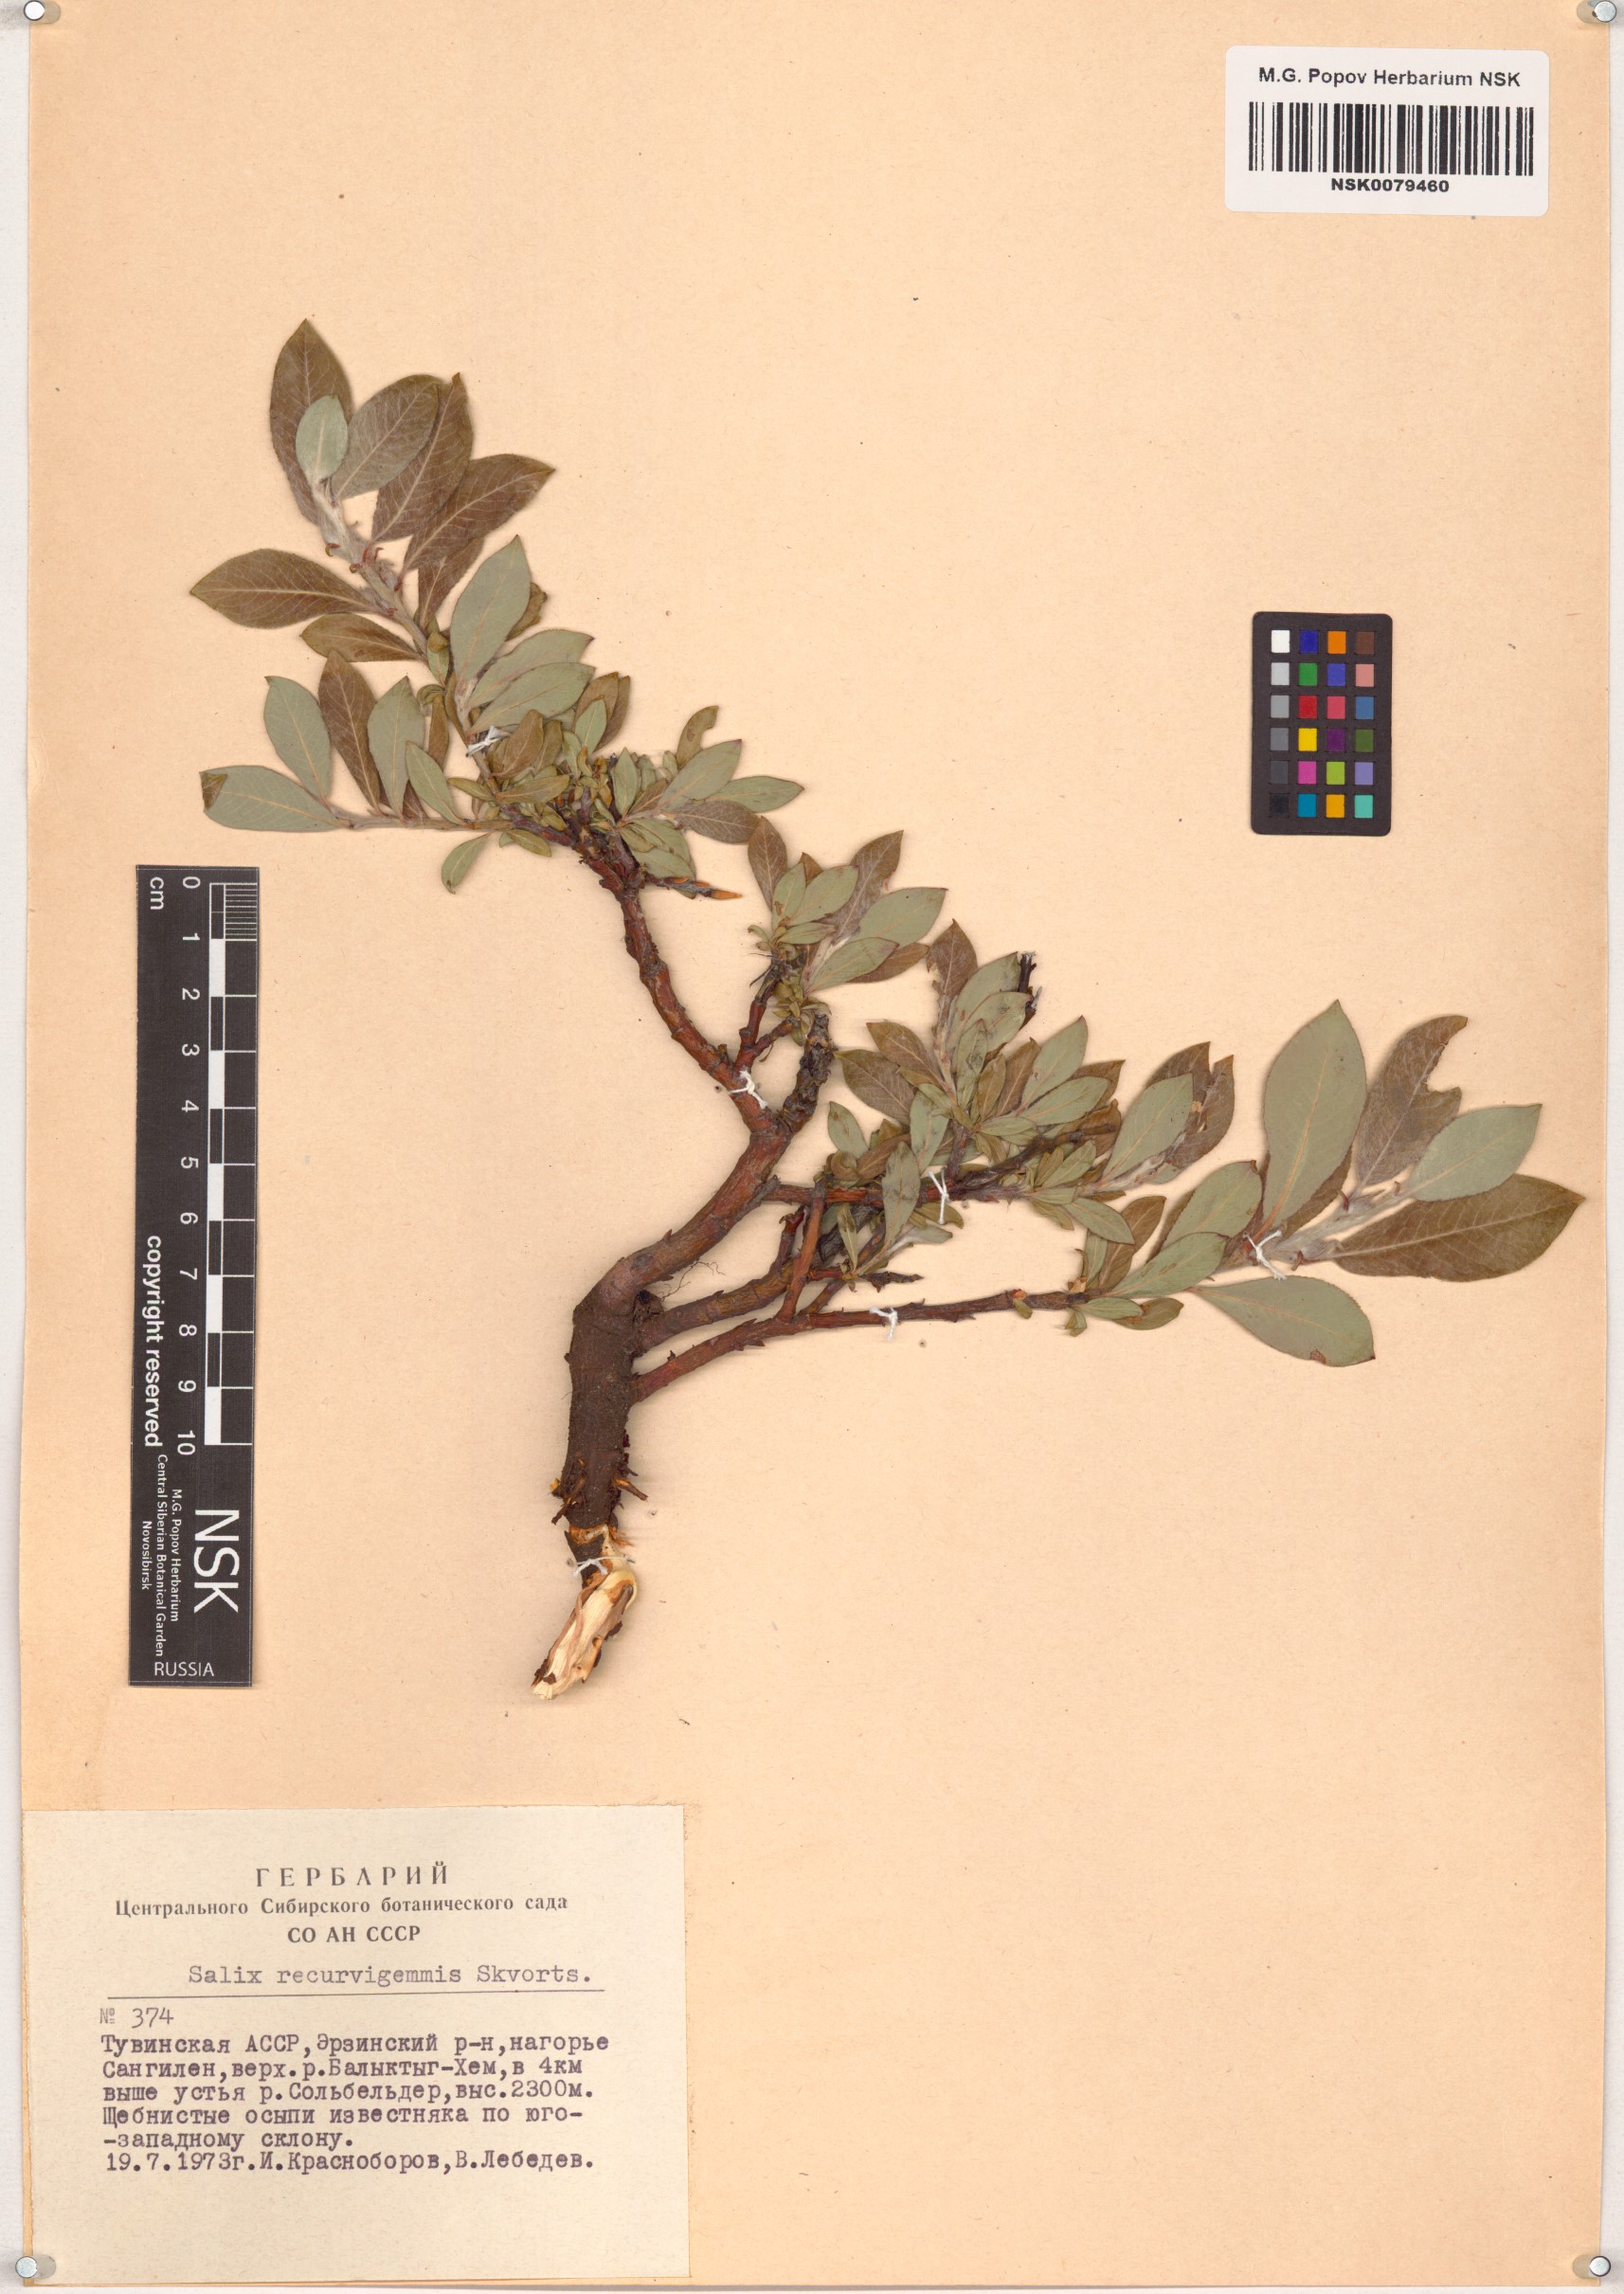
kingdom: Plantae
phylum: Tracheophyta
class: Magnoliopsida
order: Malpighiales
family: Salicaceae
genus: Salix
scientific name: Salix recurvigemmata
